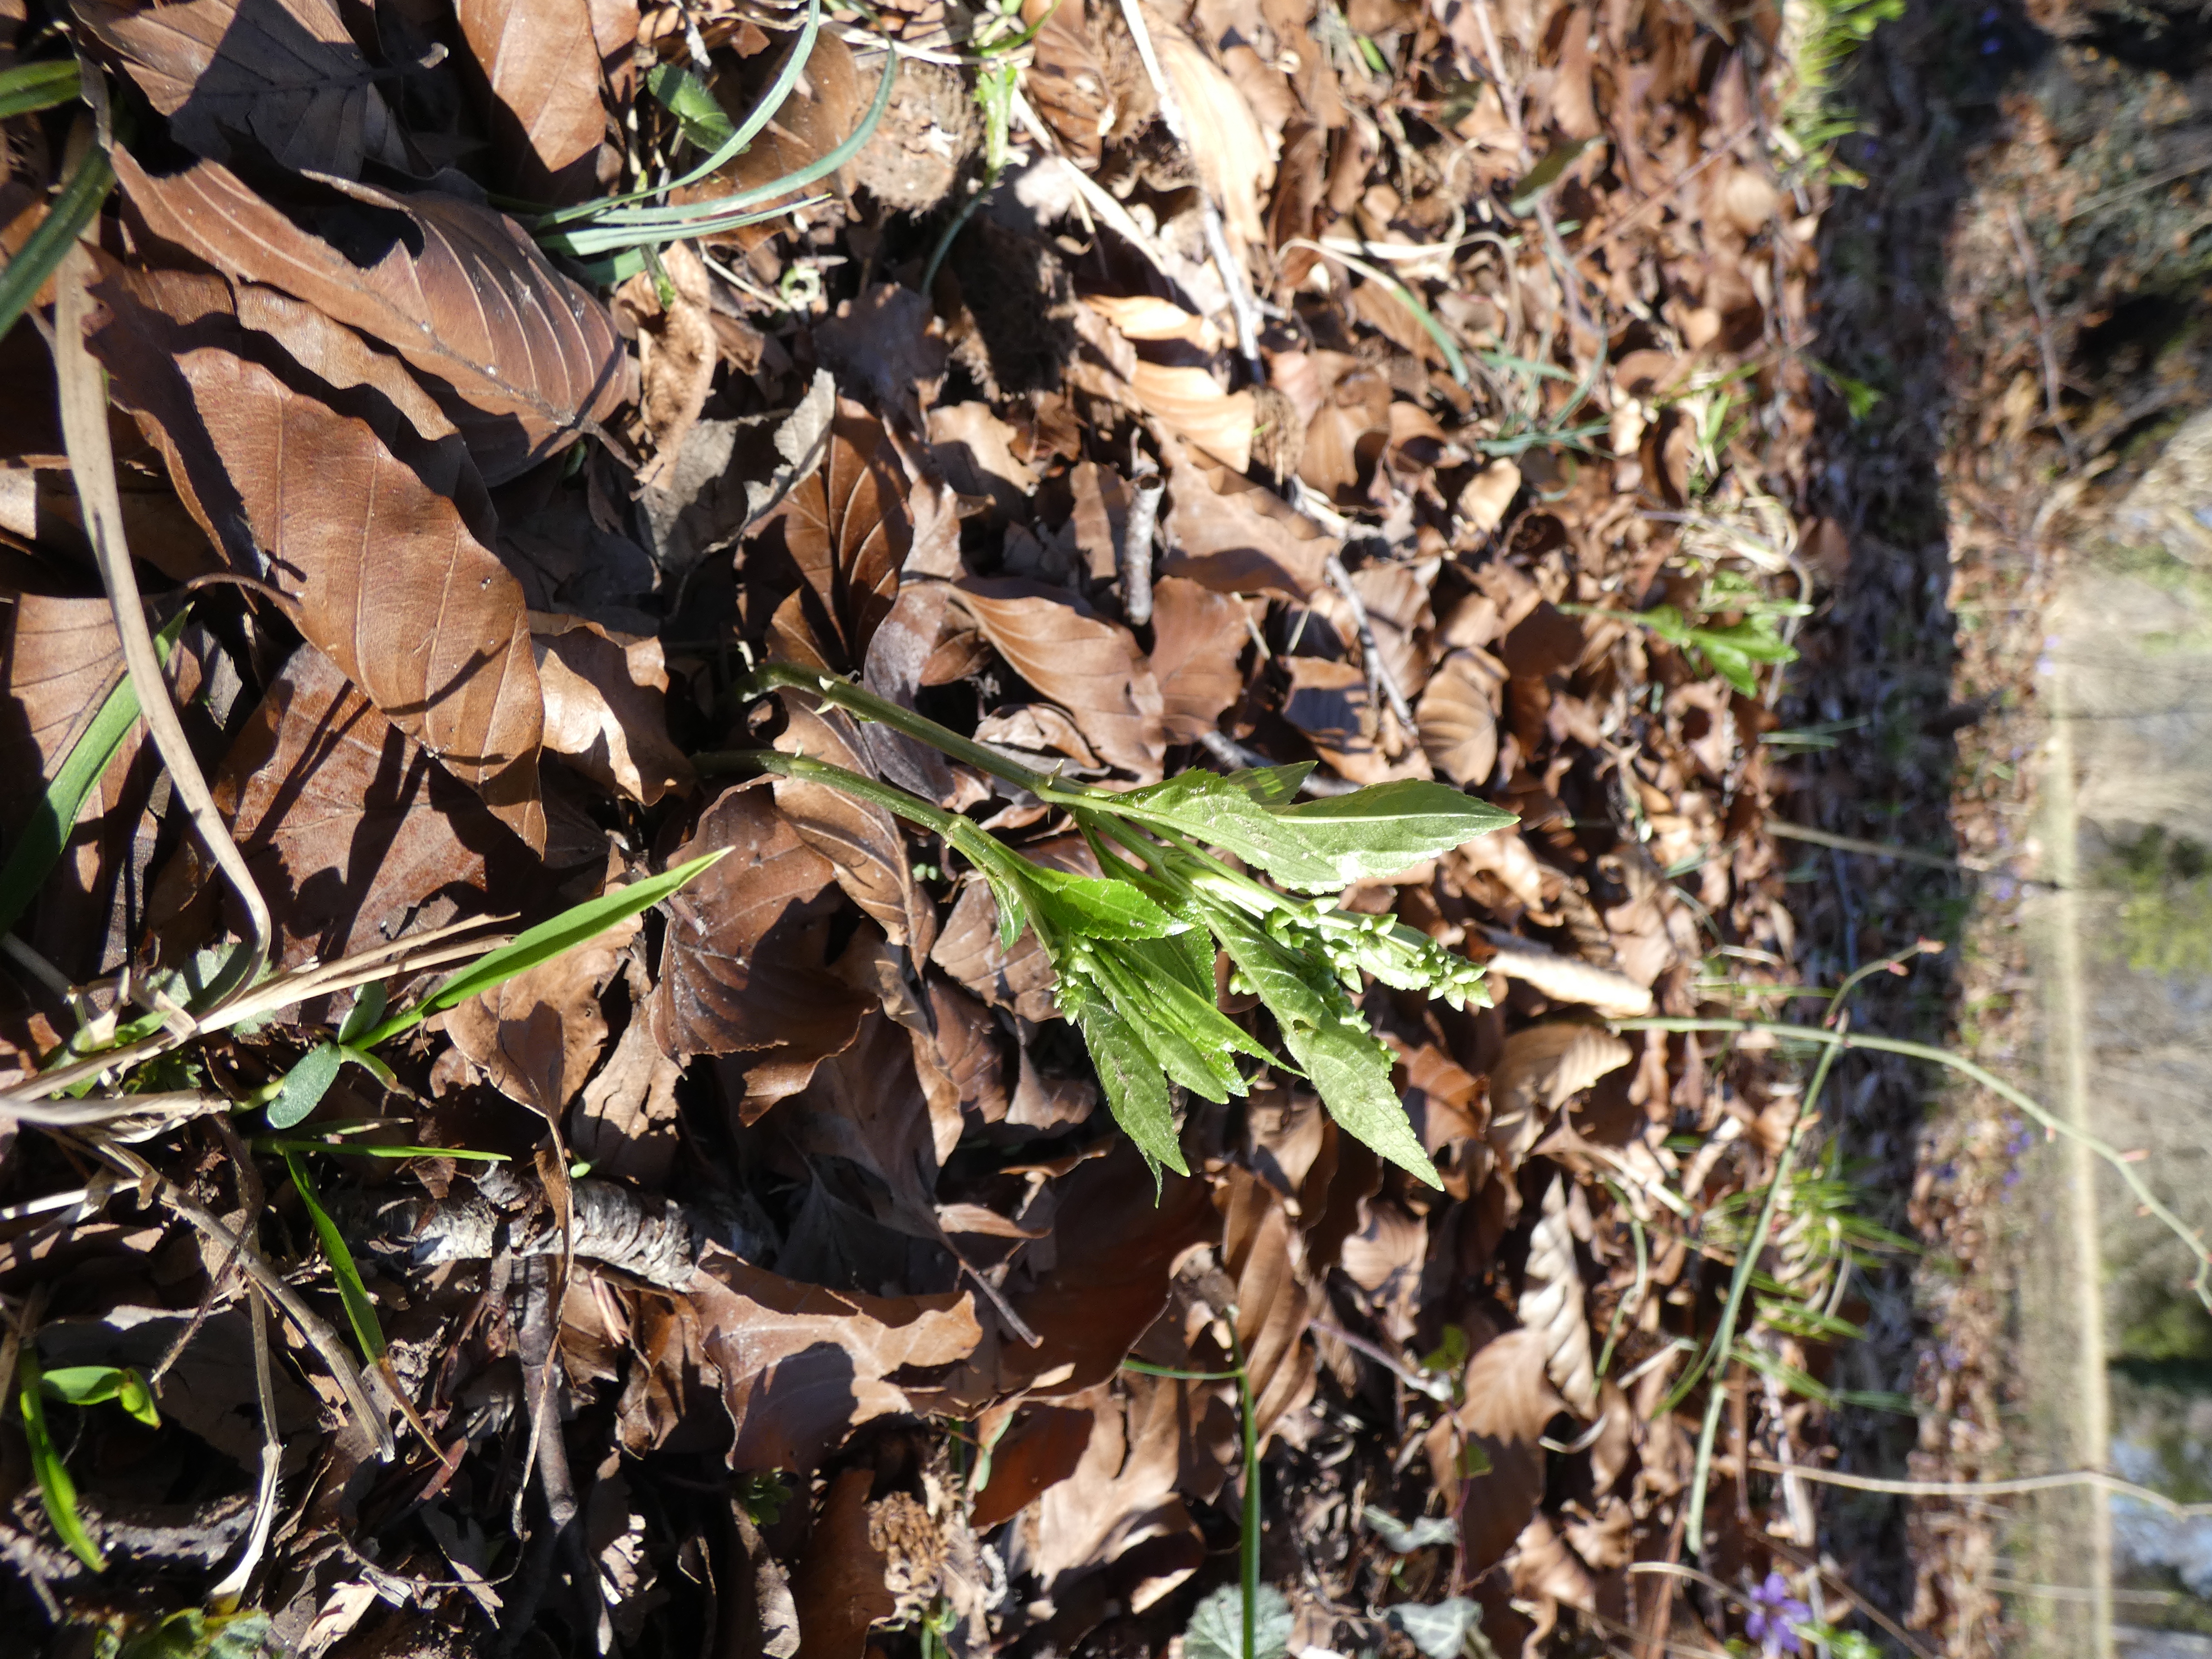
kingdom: Plantae
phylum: Tracheophyta
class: Magnoliopsida
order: Malpighiales
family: Euphorbiaceae
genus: Mercurialis
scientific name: Mercurialis perennis
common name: Almindelig bingelurt
